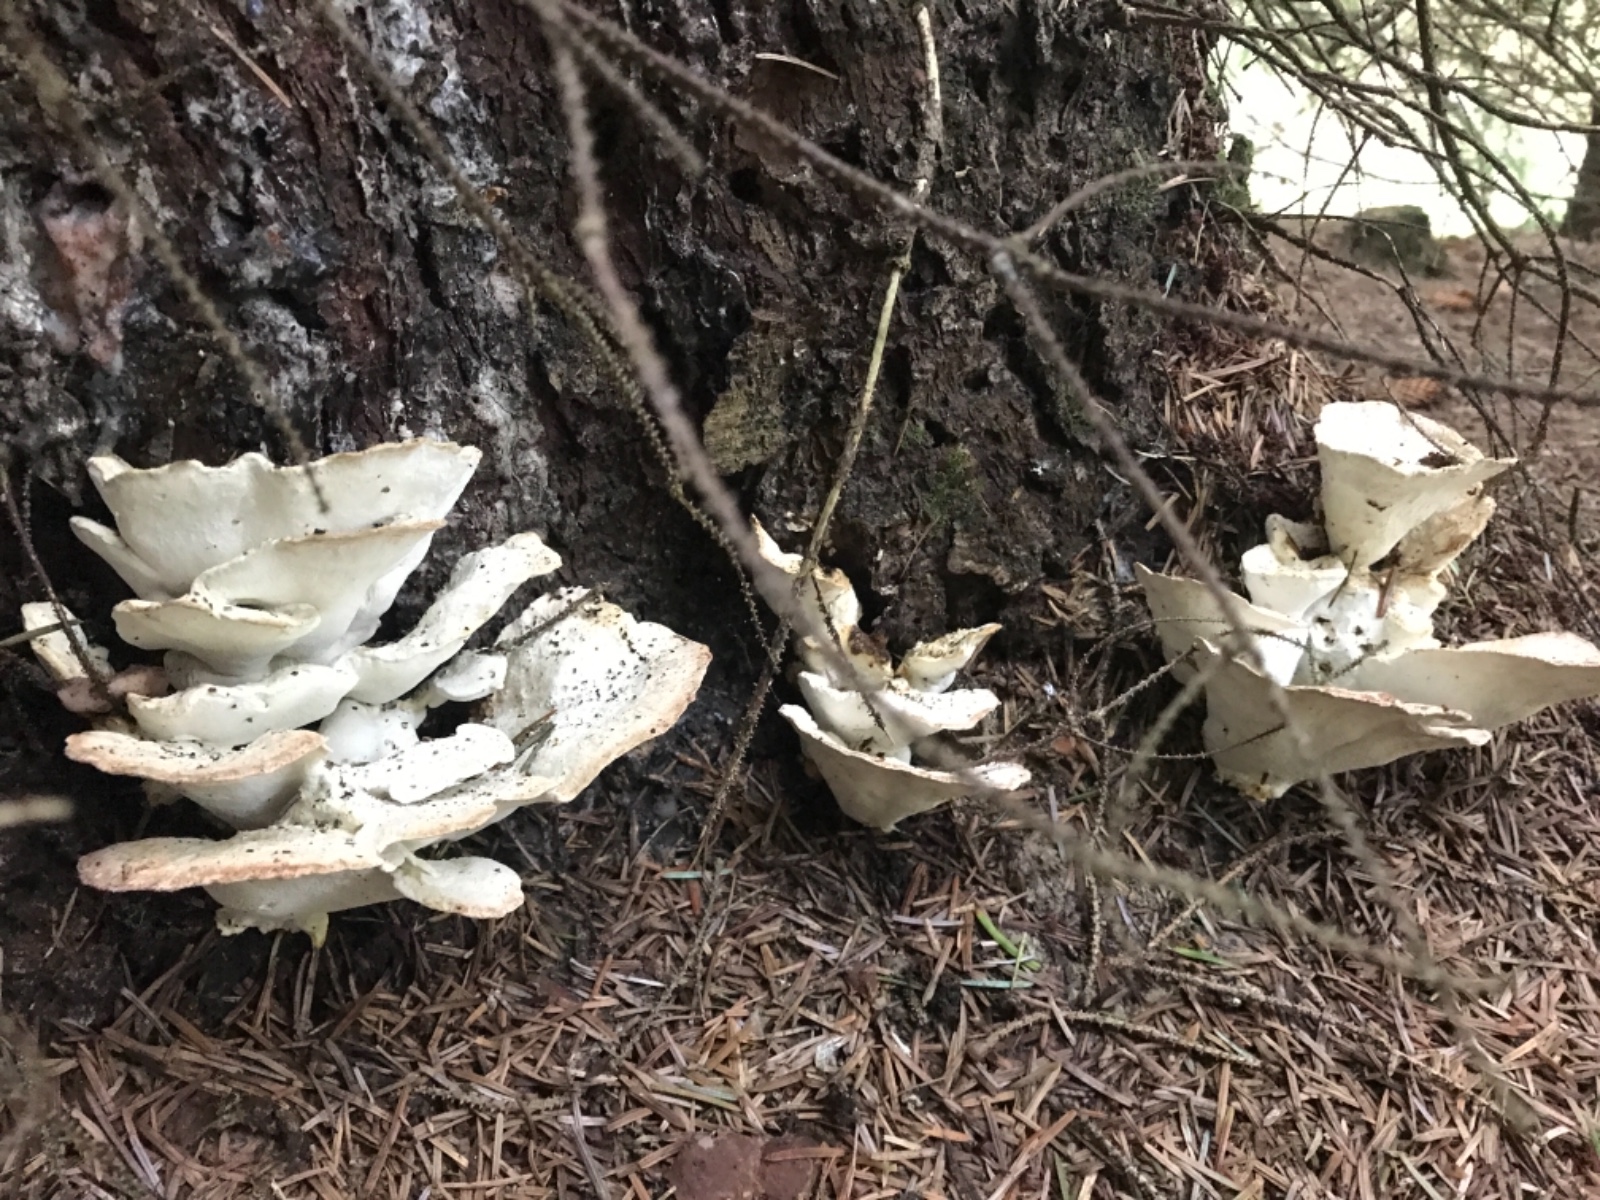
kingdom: Fungi
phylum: Basidiomycota
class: Agaricomycetes
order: Polyporales
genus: Calcipostia
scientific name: Calcipostia guttulata
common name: dråbe-kødporesvamp
